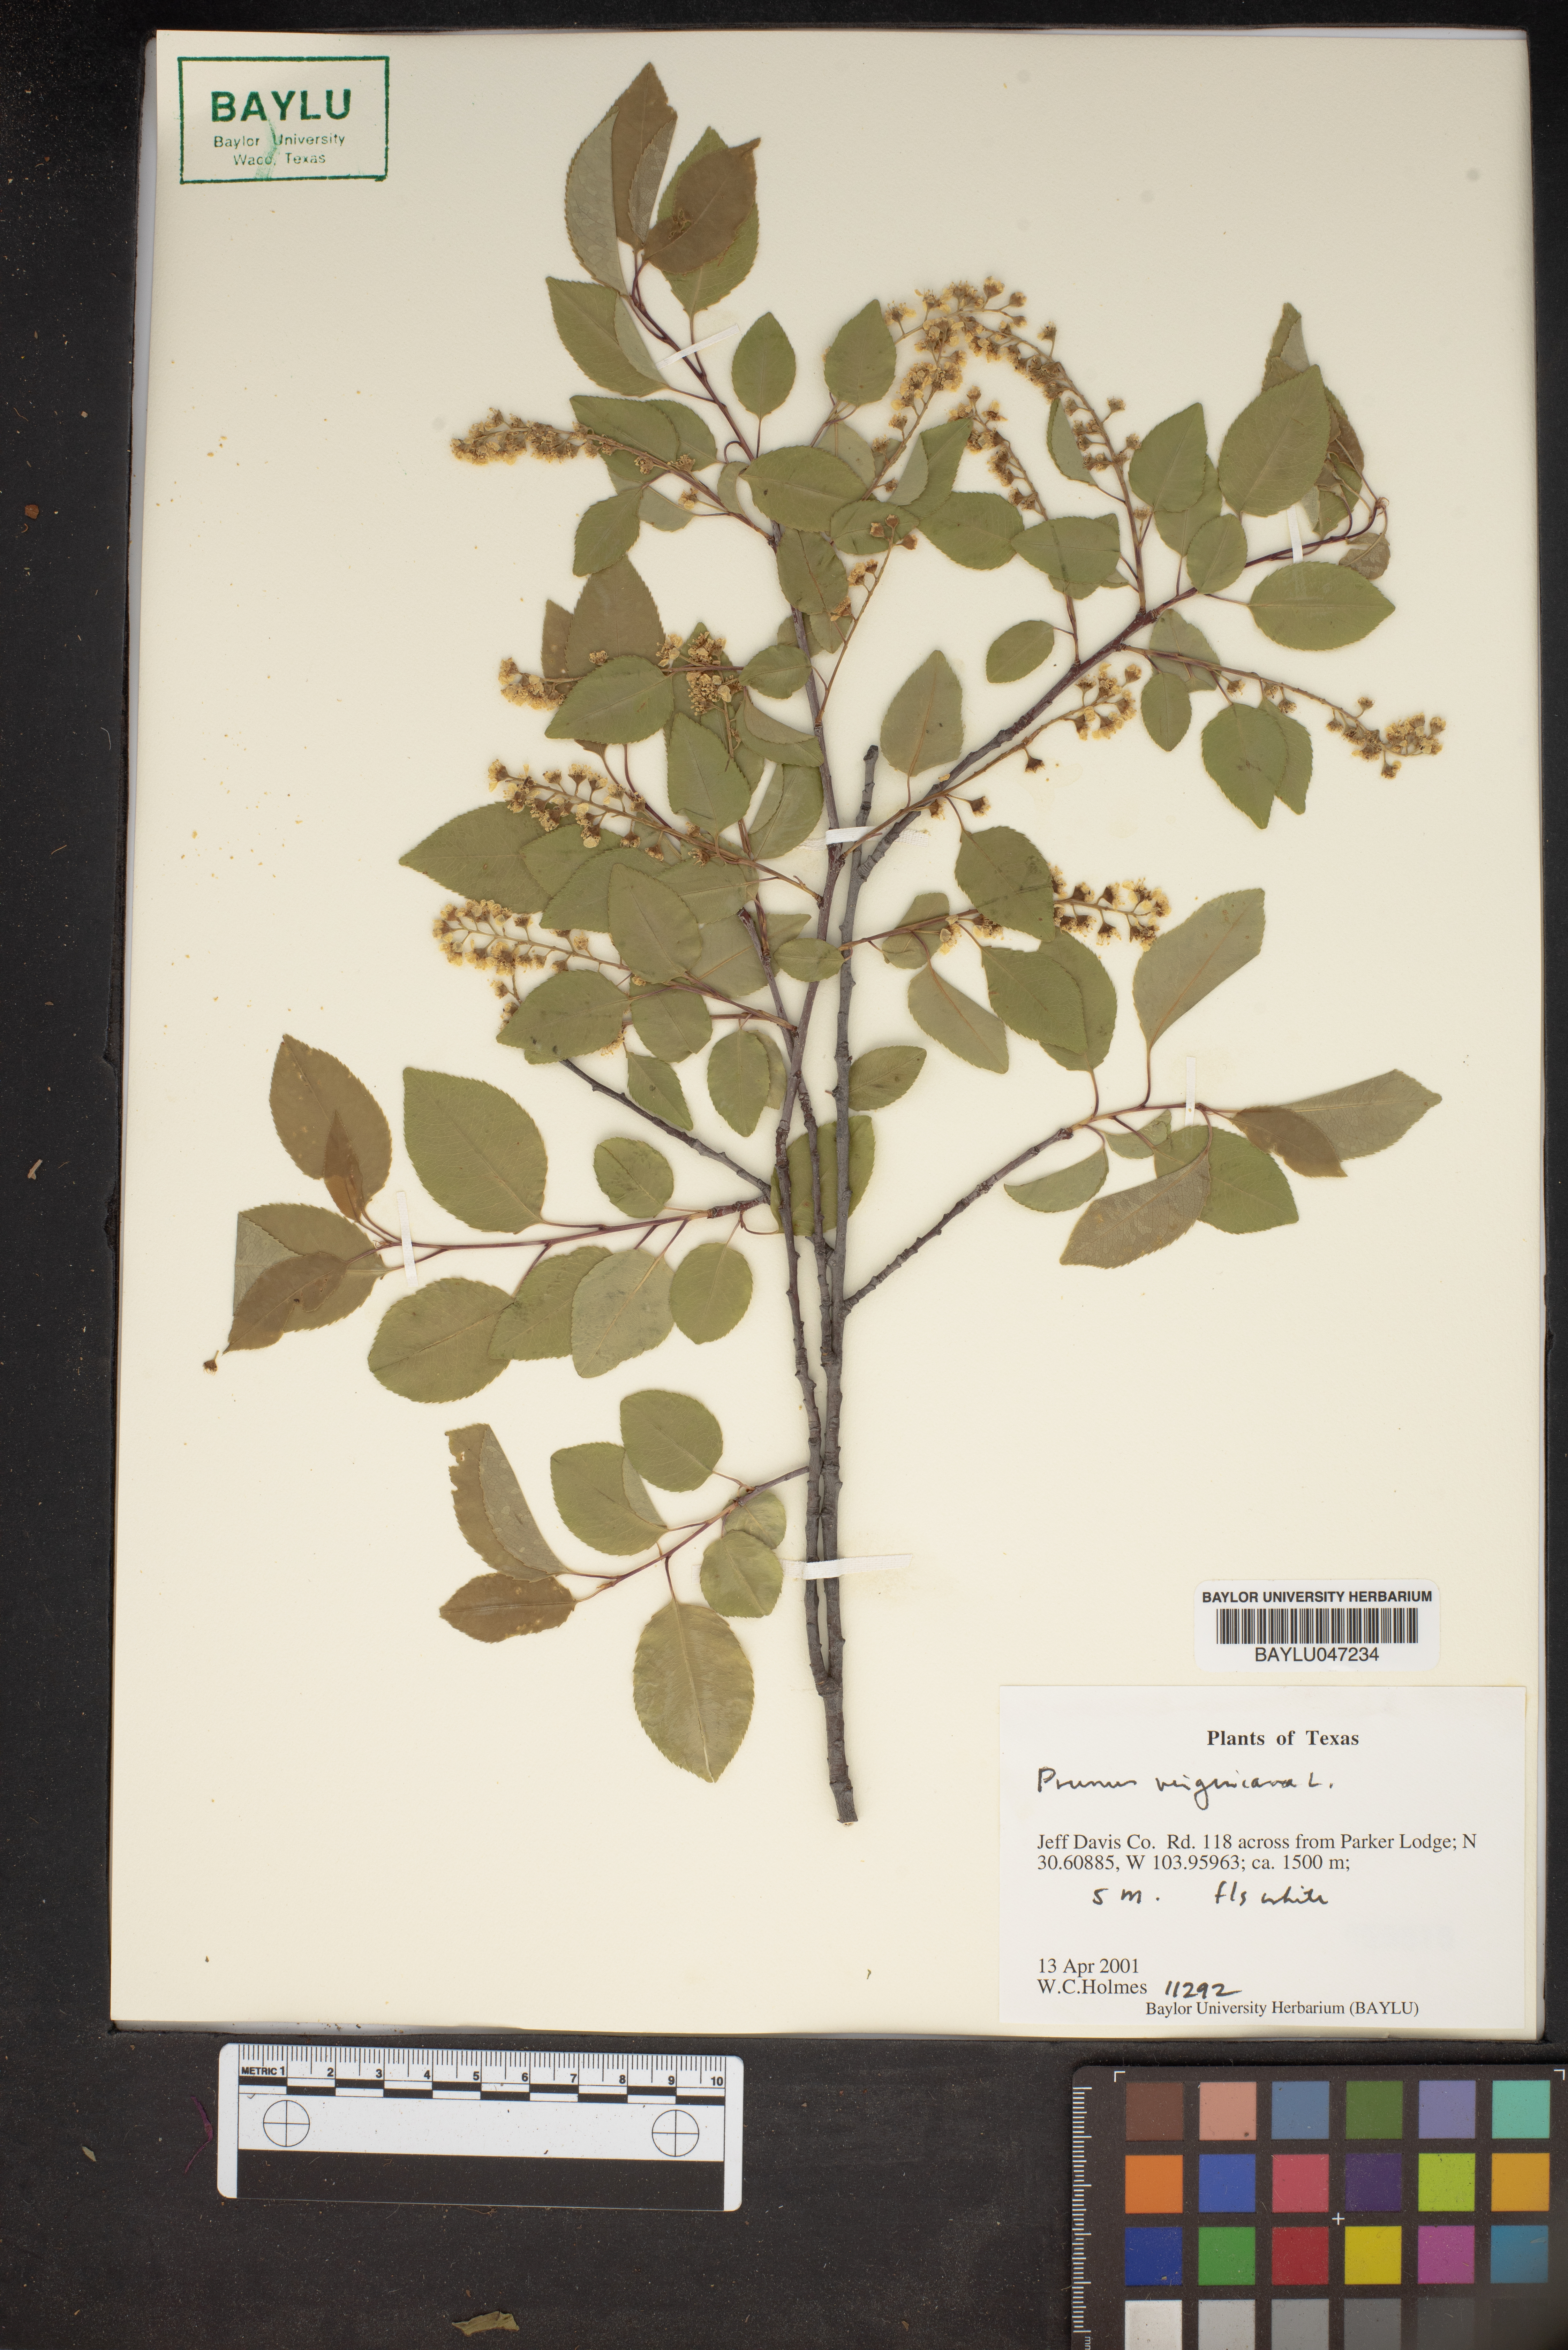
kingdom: Plantae
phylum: Tracheophyta
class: Magnoliopsida
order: Rosales
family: Rosaceae
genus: Prunus
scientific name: Prunus virginiana
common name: Chokecherry
